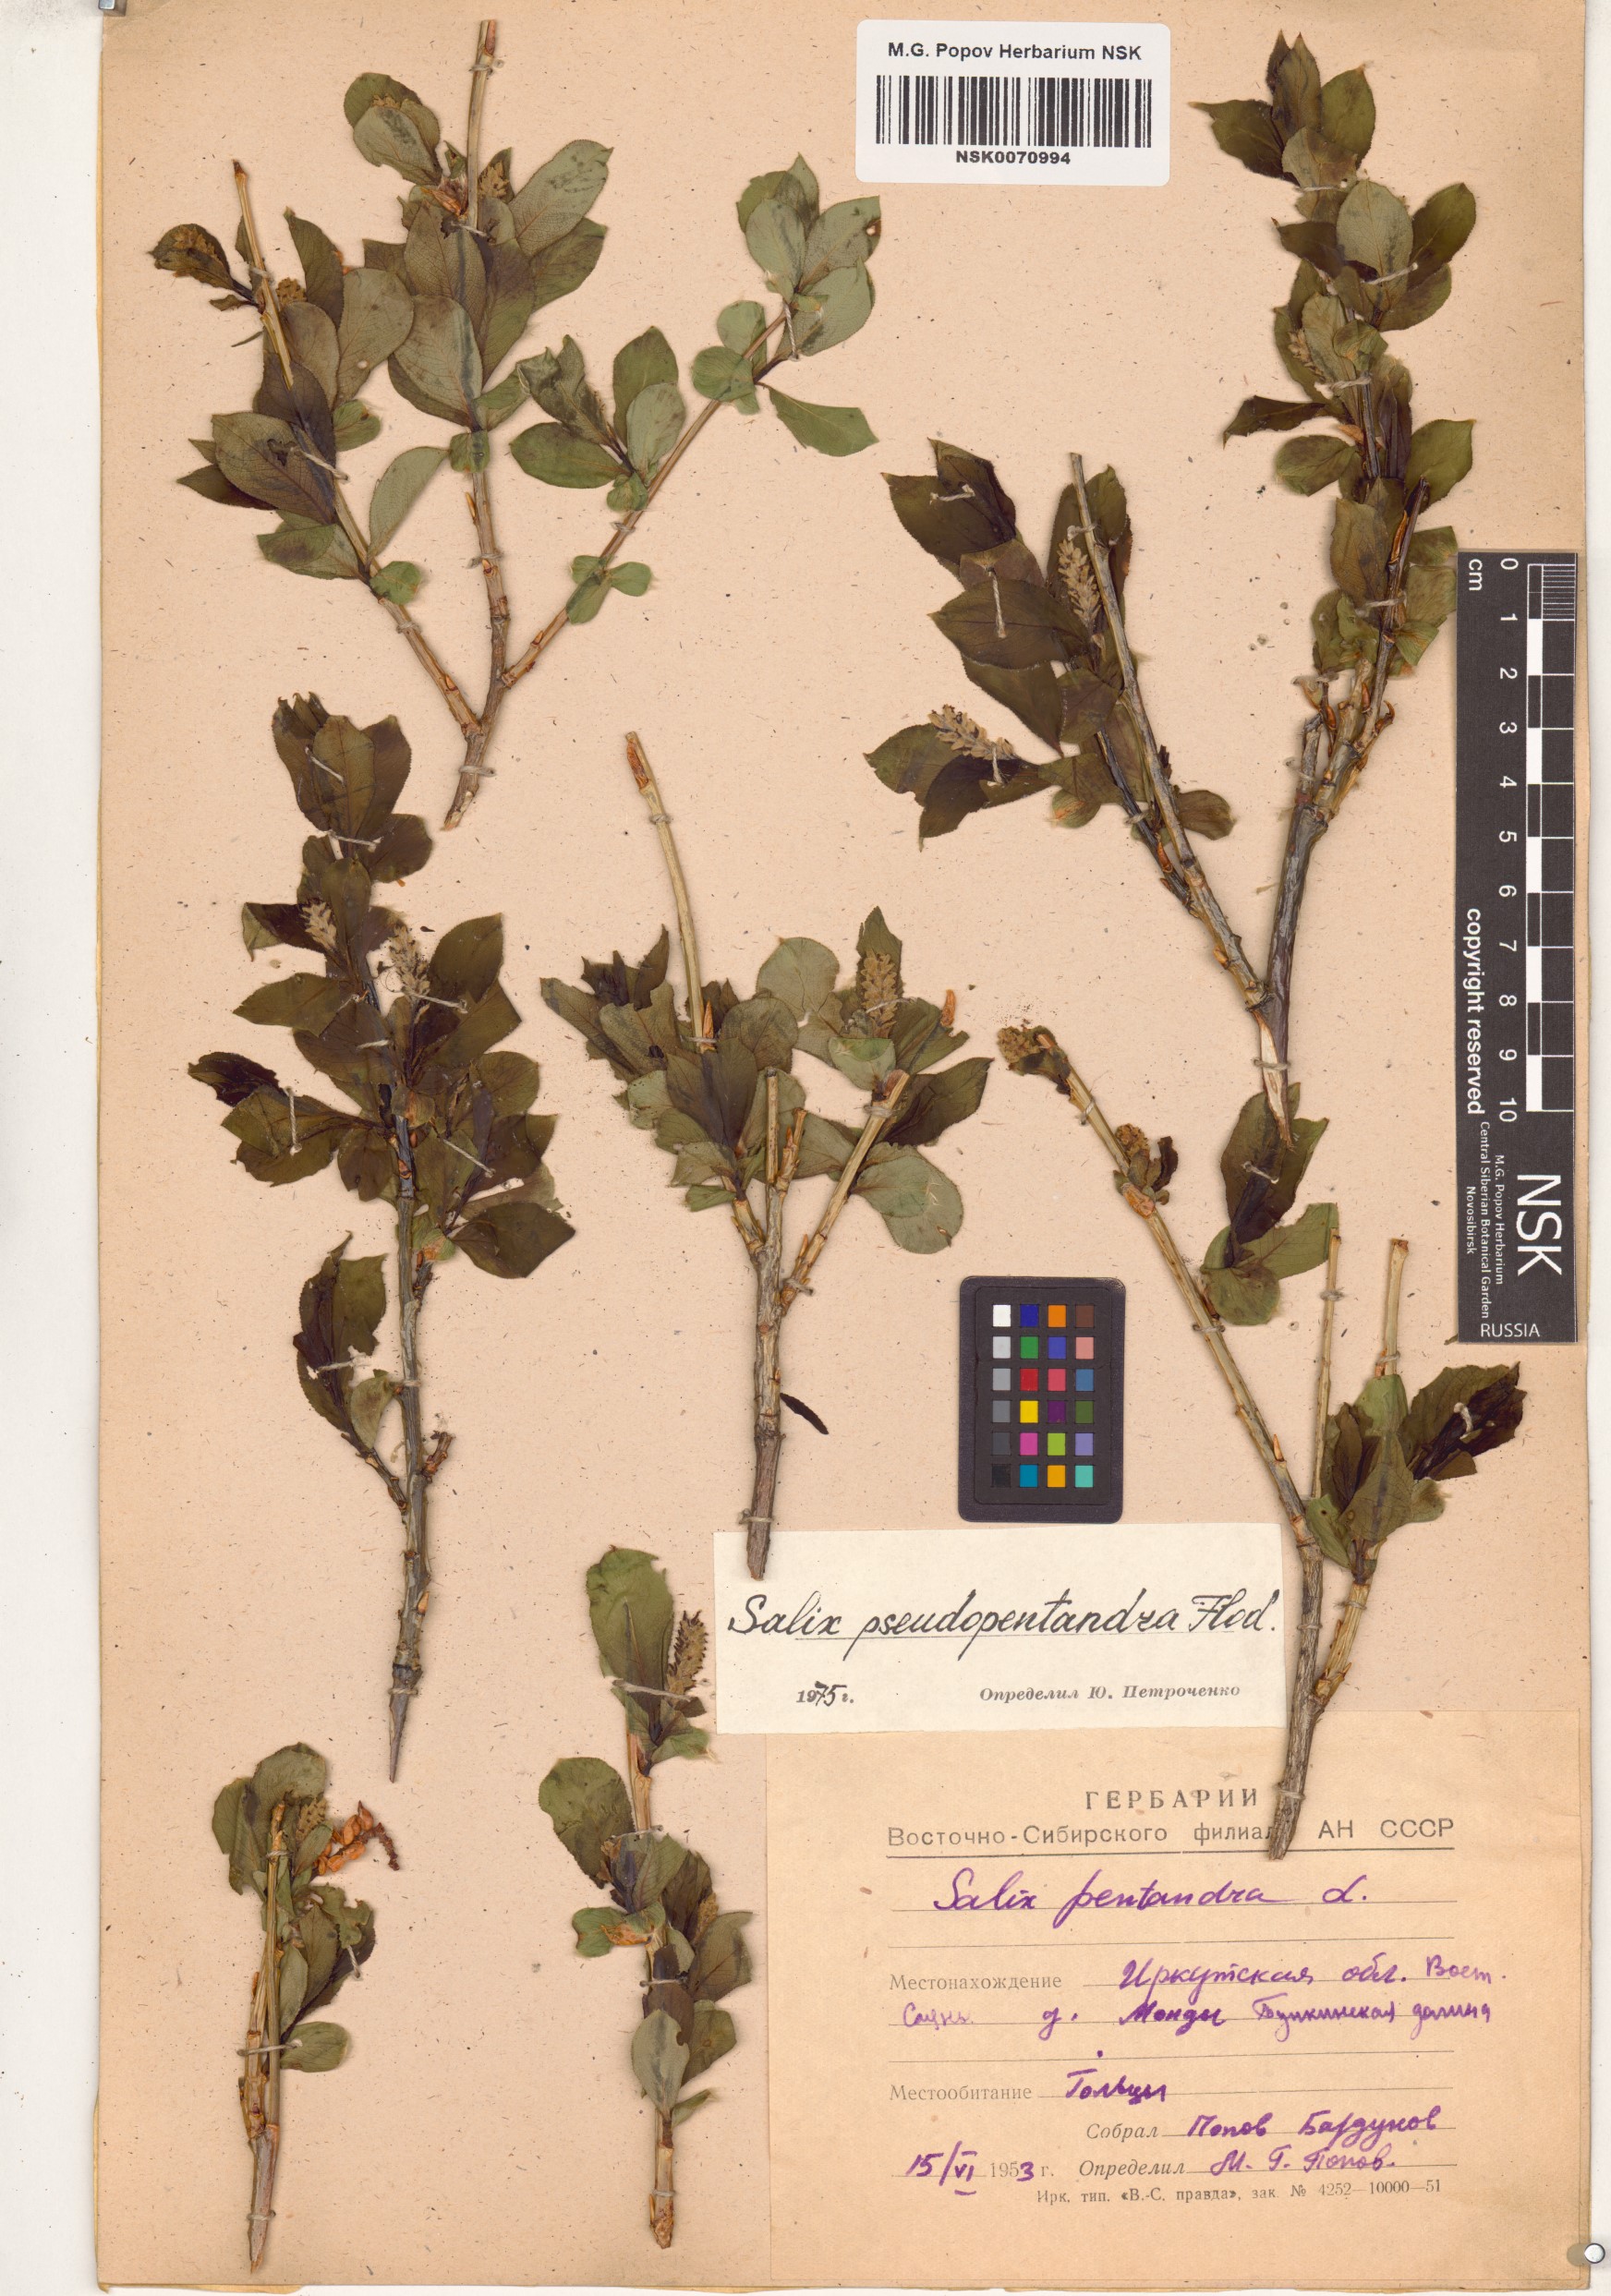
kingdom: Plantae
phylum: Tracheophyta
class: Magnoliopsida
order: Malpighiales
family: Salicaceae
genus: Salix
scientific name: Salix pseudopentandra
